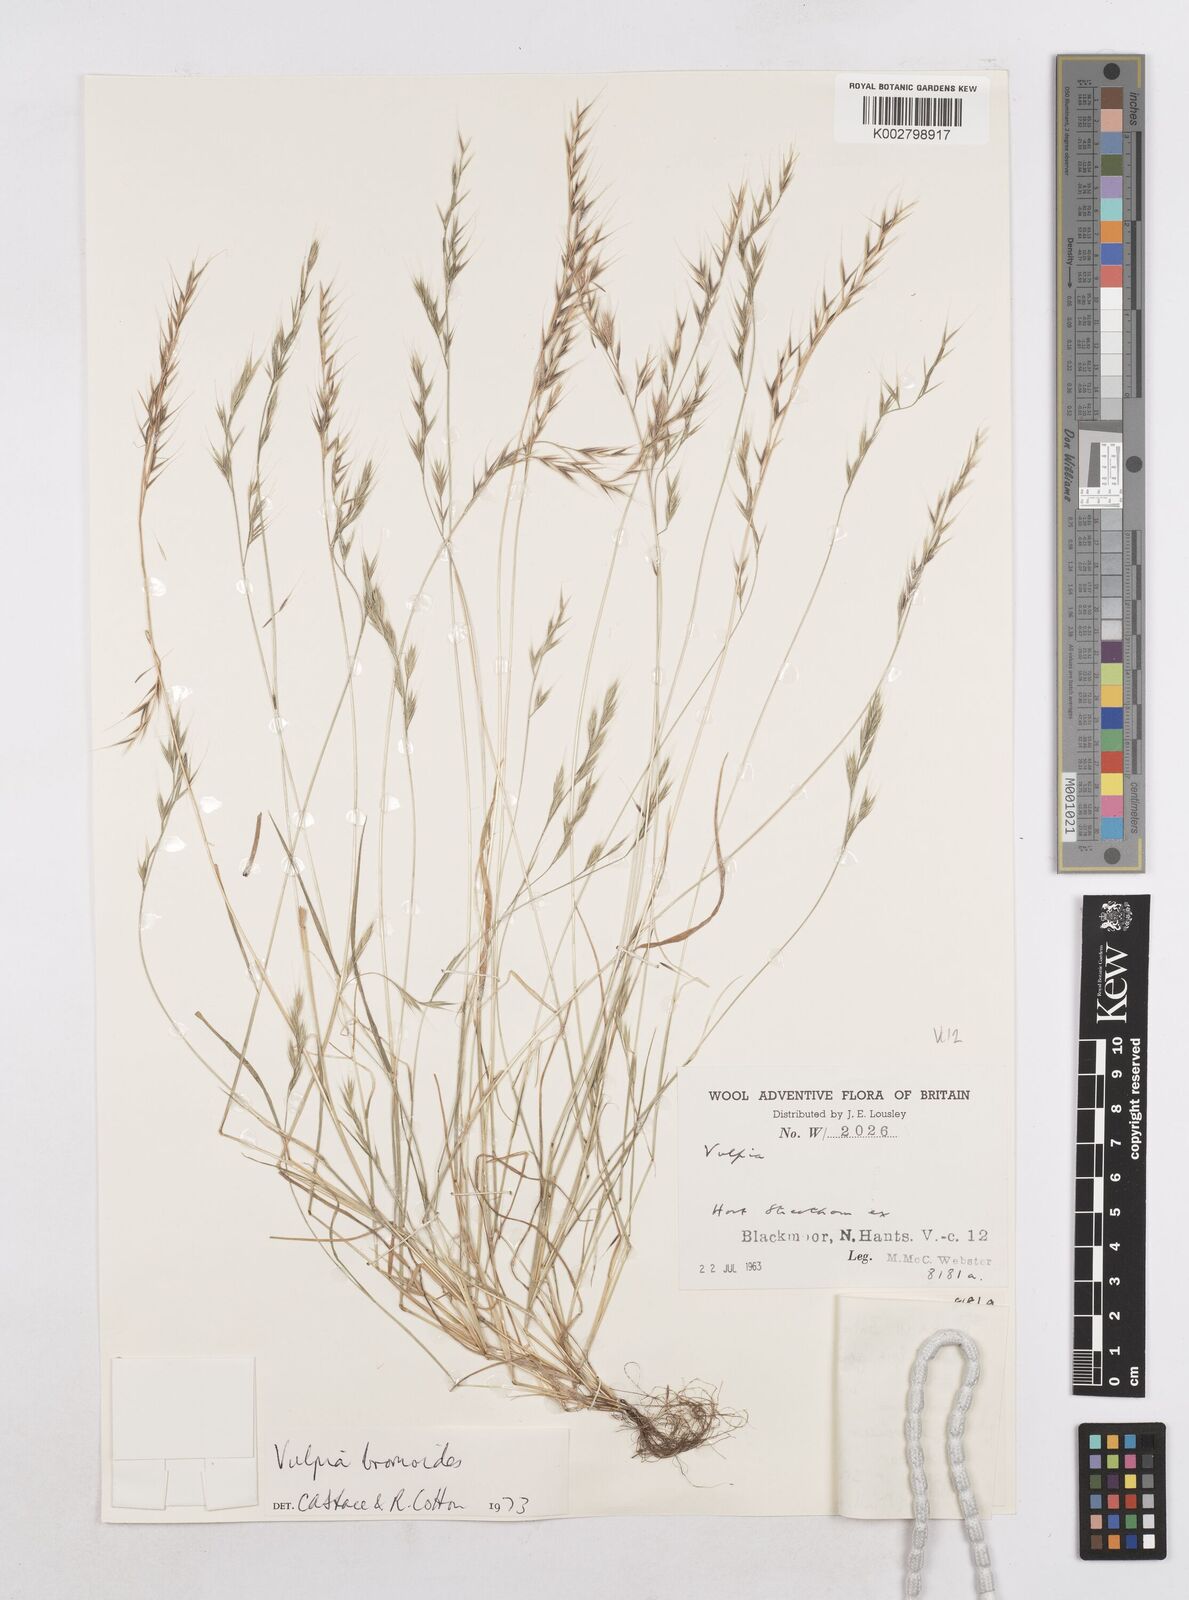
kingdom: Plantae
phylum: Tracheophyta
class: Liliopsida
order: Poales
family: Poaceae
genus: Festuca
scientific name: Festuca bromoides
